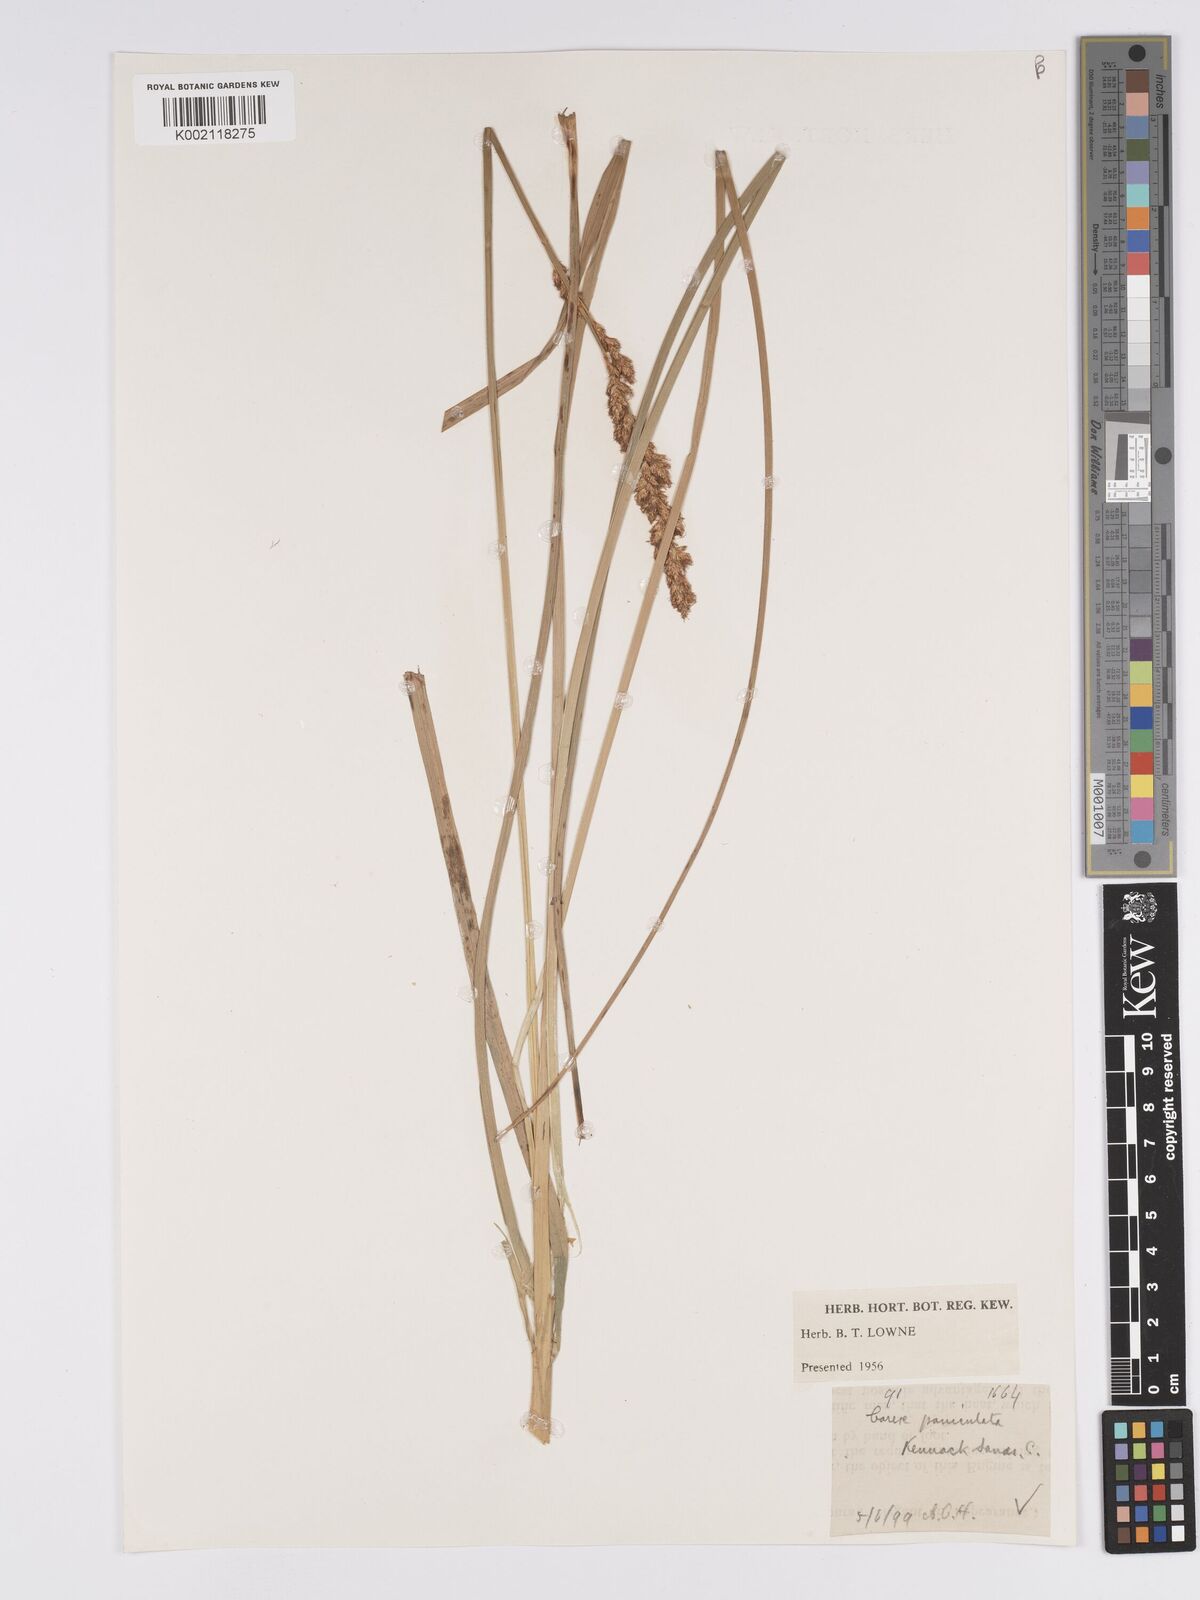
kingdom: Plantae
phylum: Tracheophyta
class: Liliopsida
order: Poales
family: Cyperaceae
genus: Carex
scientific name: Carex paniculata
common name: Greater tussock-sedge
